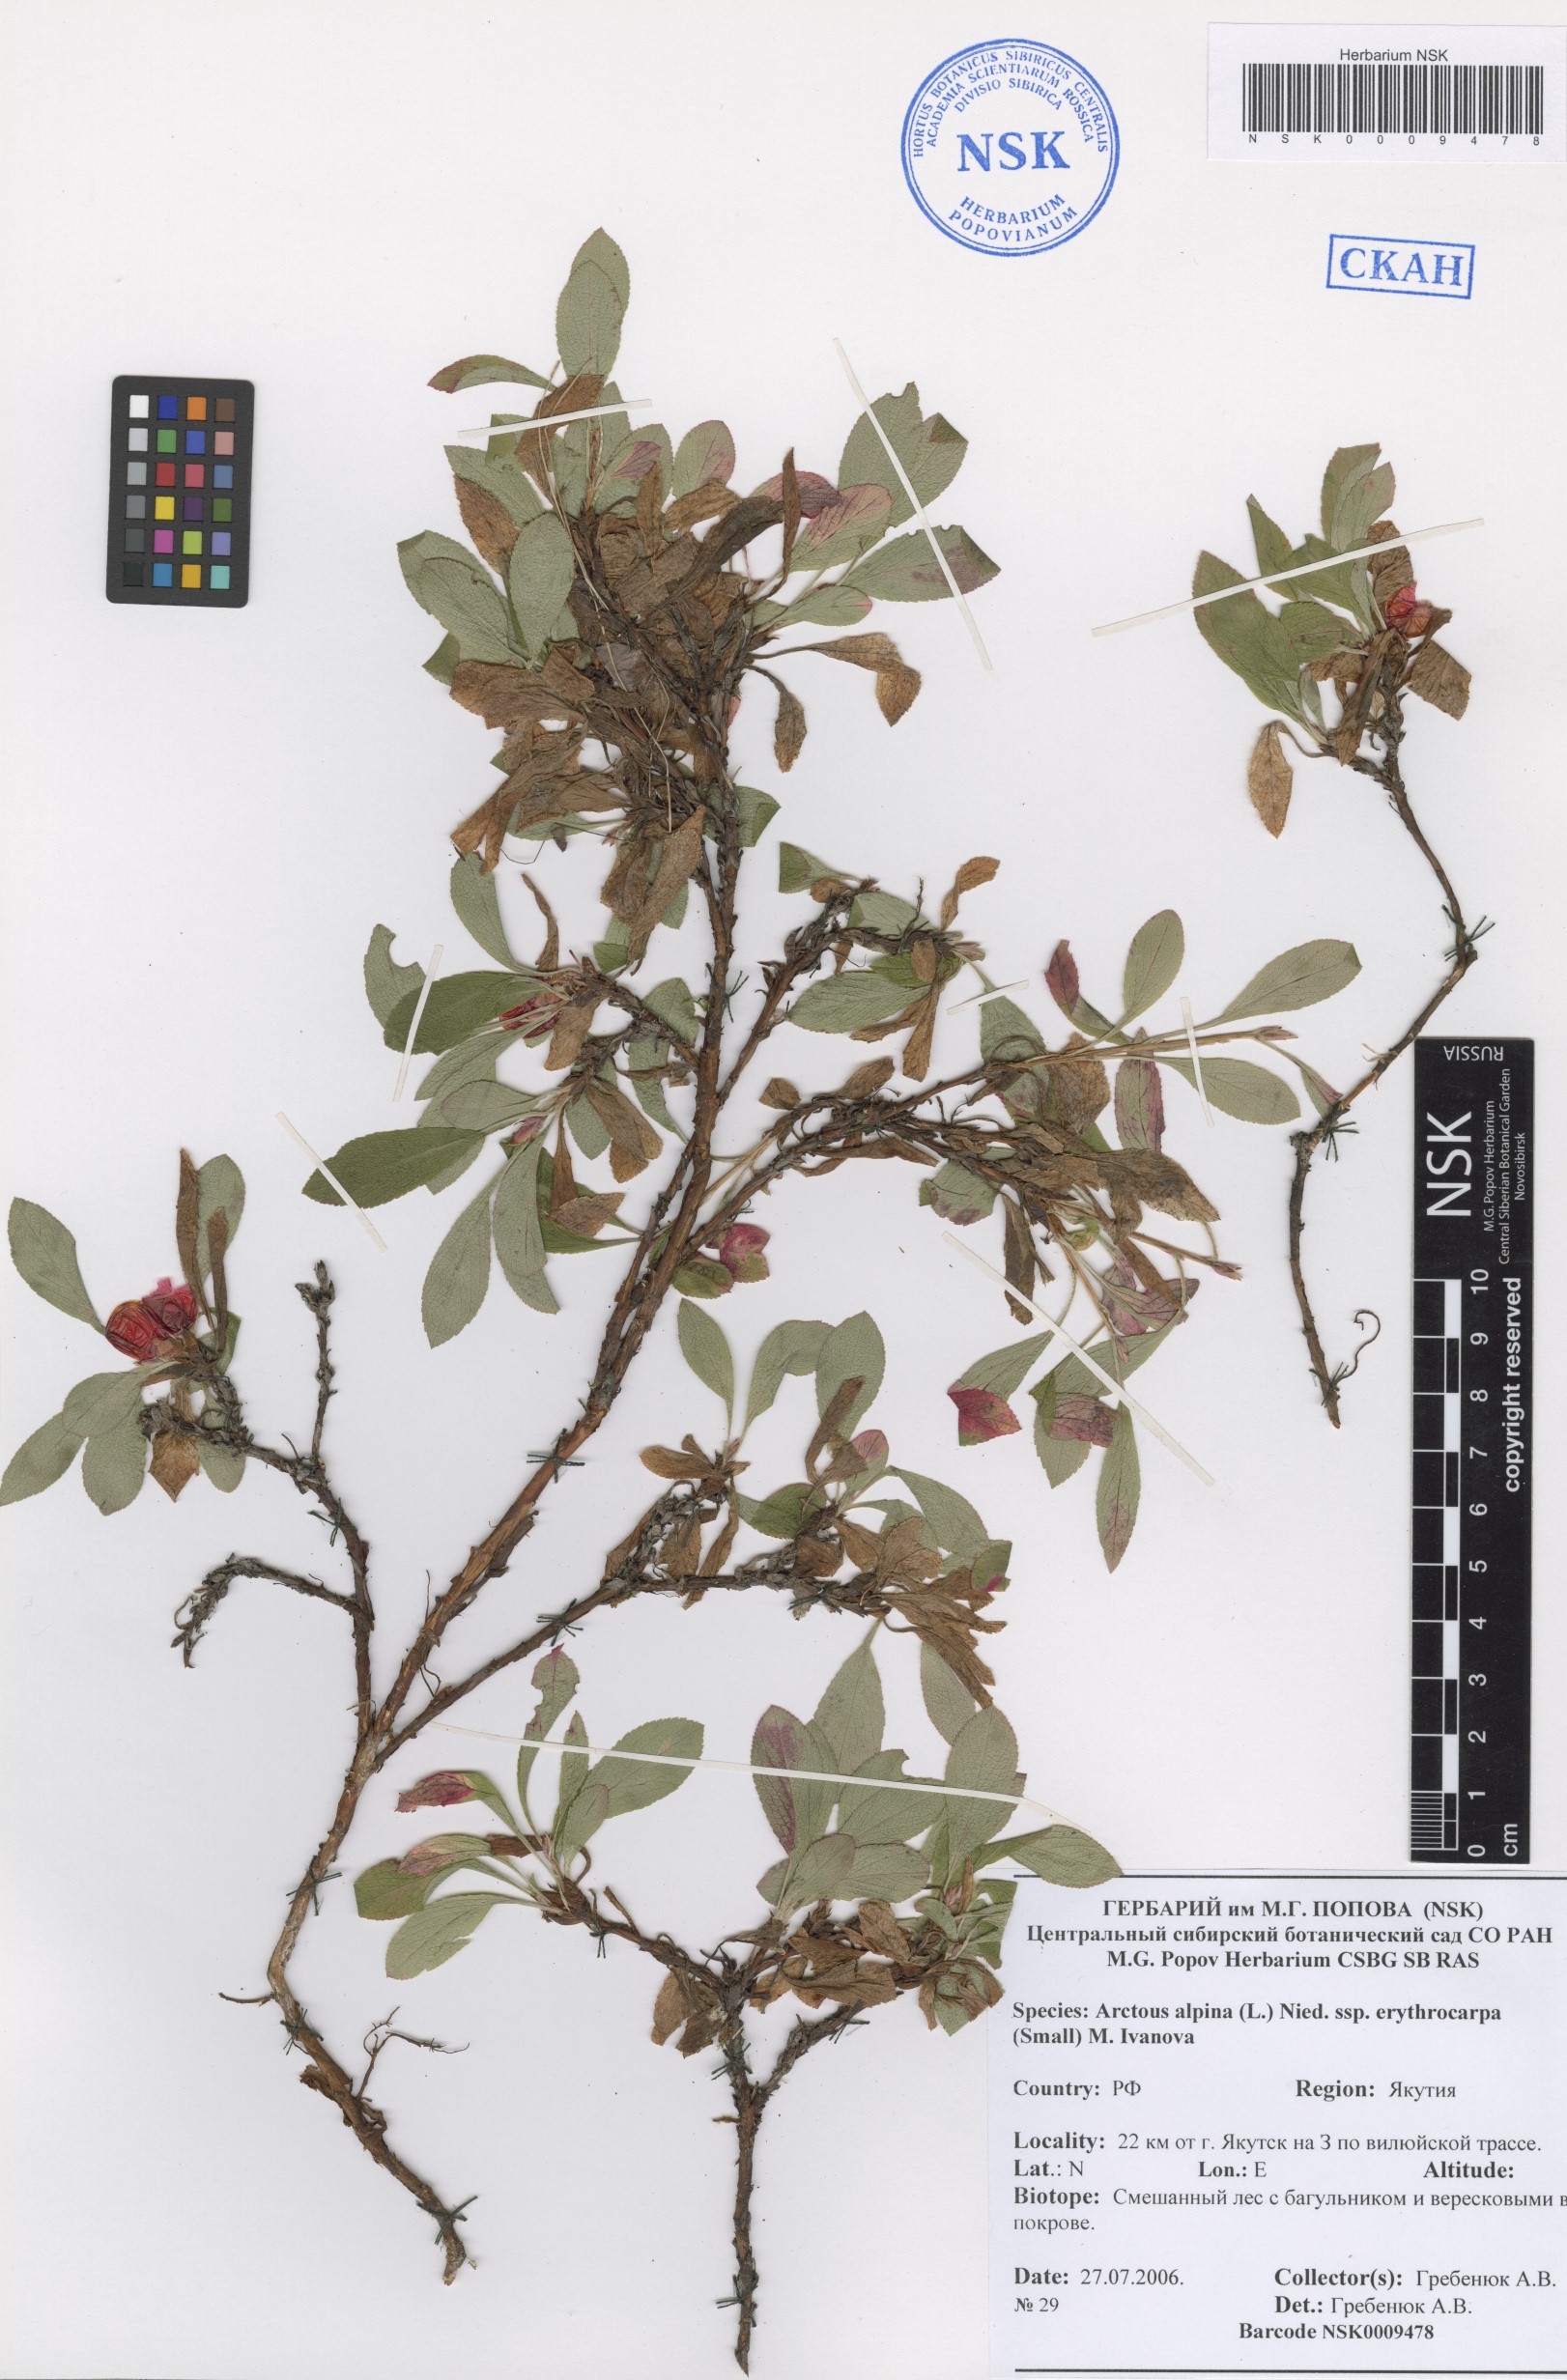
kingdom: Plantae
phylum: Tracheophyta
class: Magnoliopsida
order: Ericales
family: Ericaceae
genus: Arctostaphylos
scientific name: Arctostaphylos rubra
